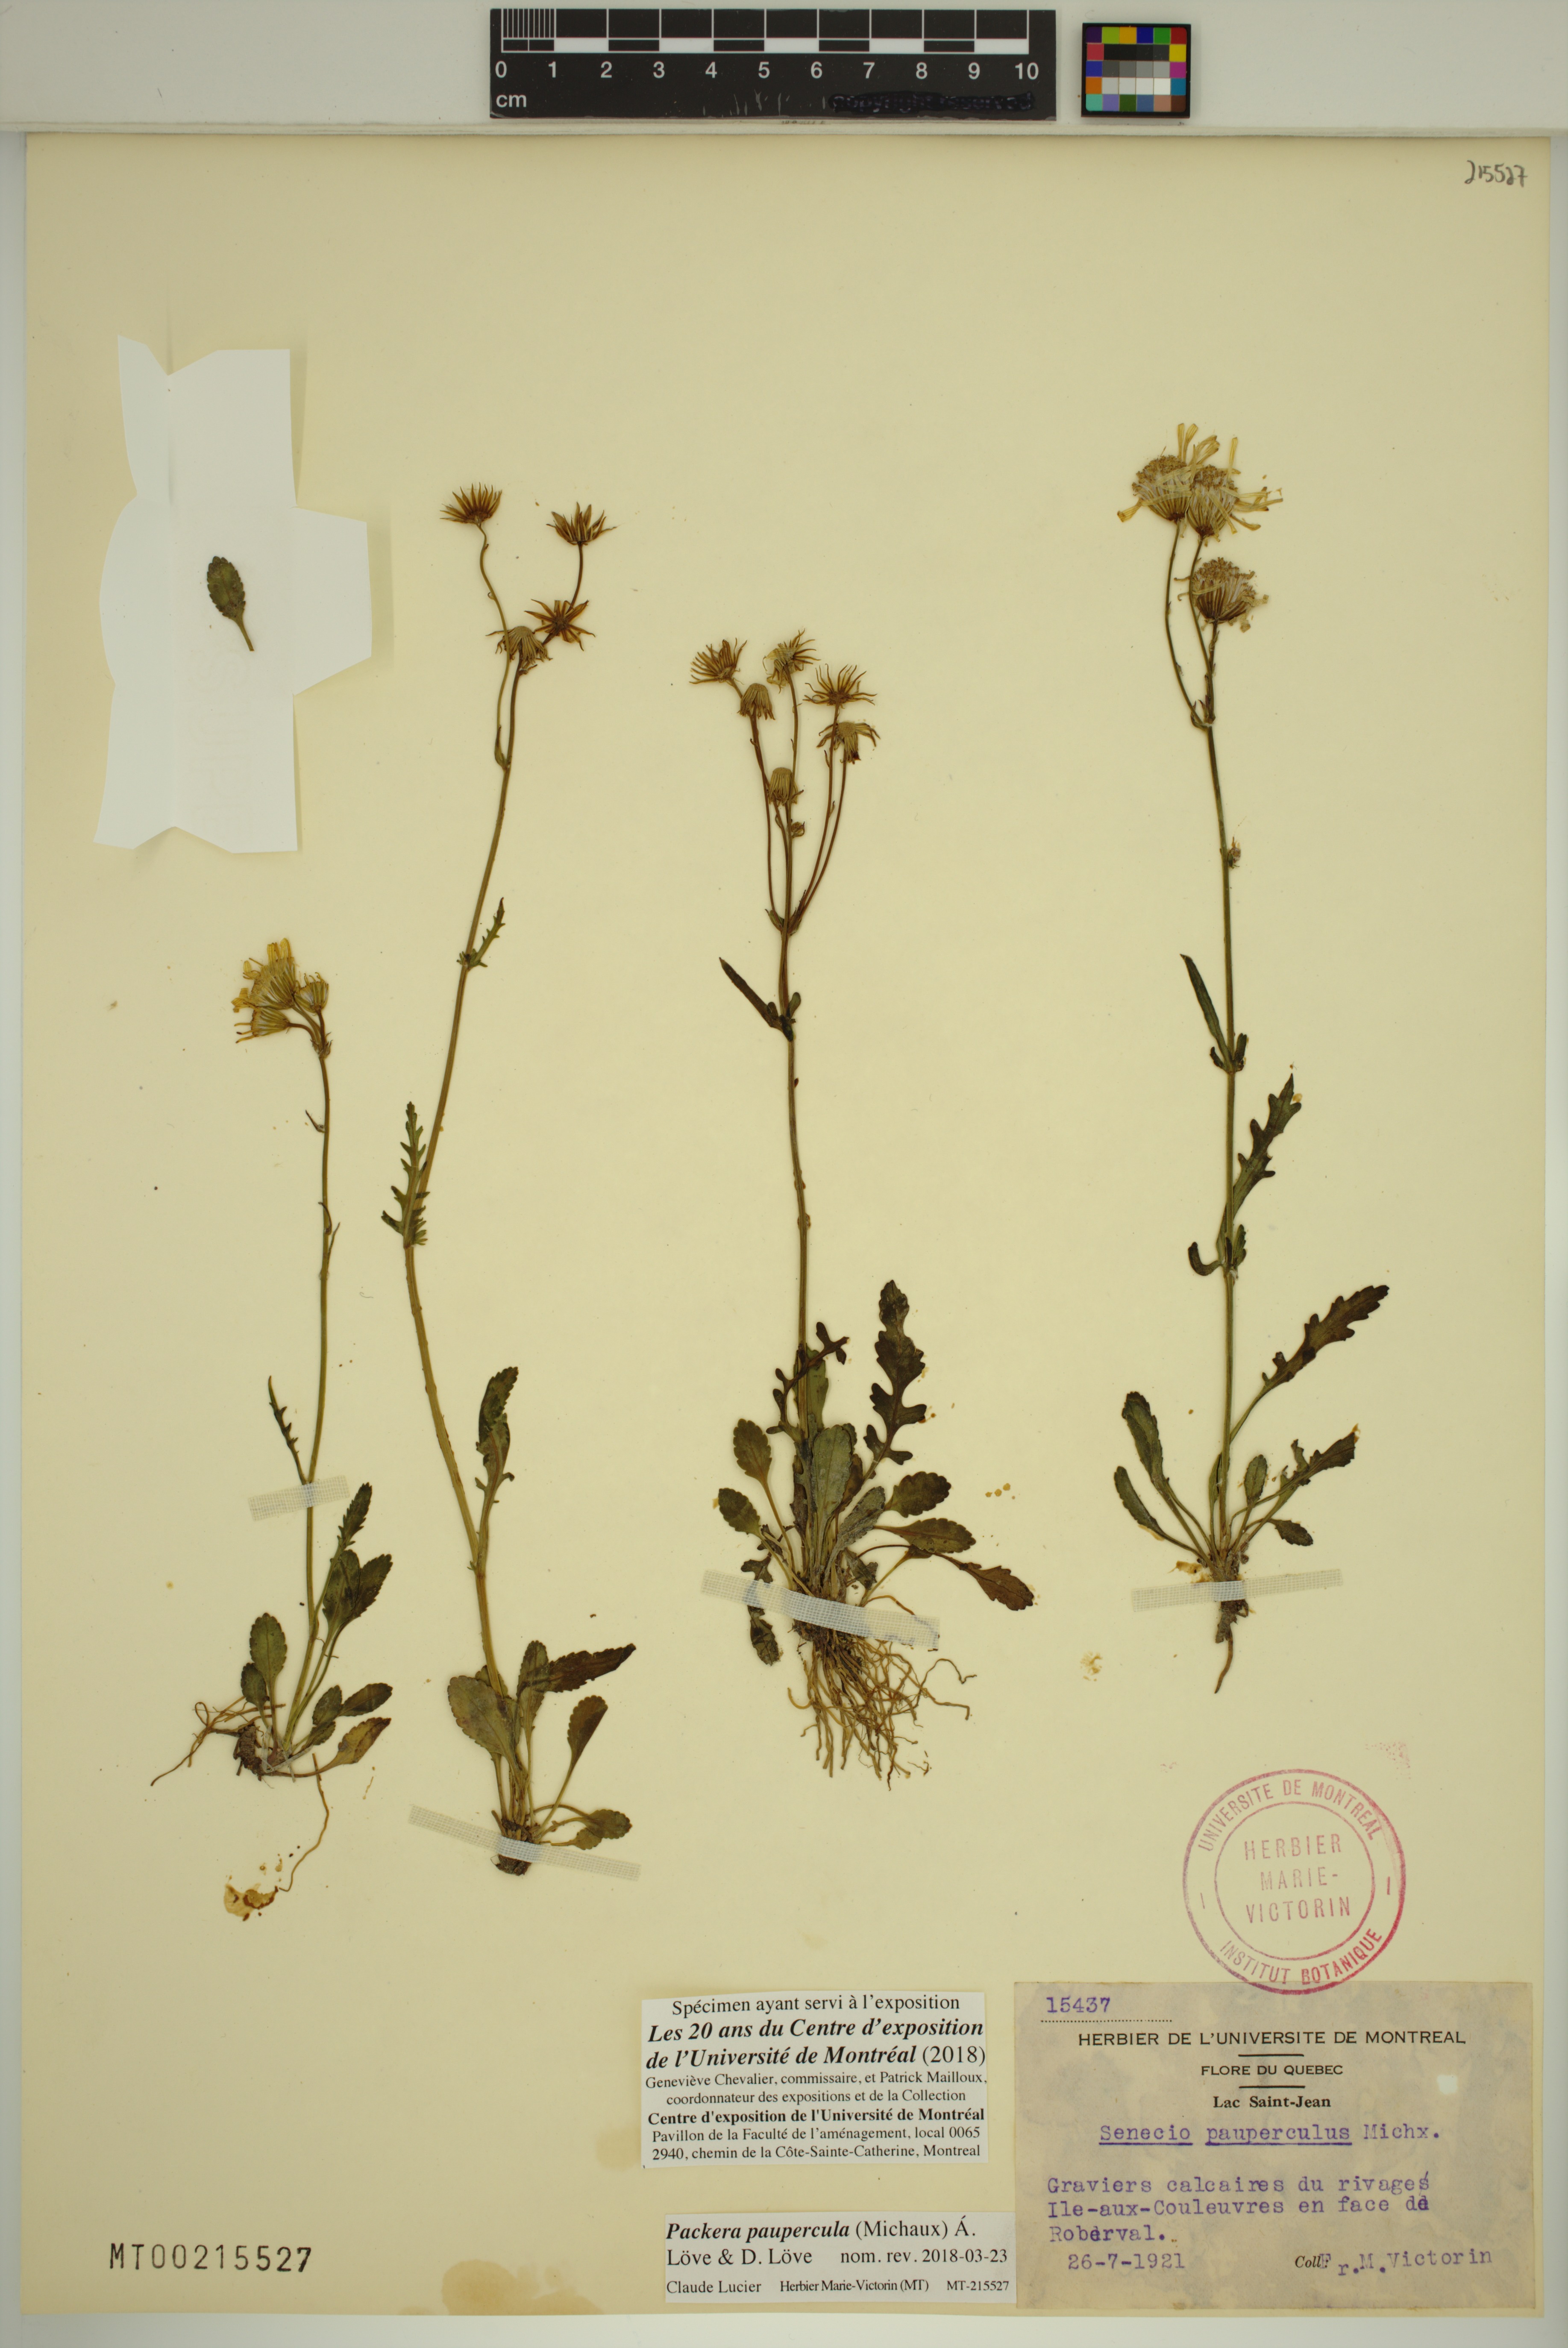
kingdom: Plantae
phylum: Tracheophyta
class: Magnoliopsida
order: Asterales
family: Asteraceae
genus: Packera
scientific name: Packera paupercula
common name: Balsam groundsel
